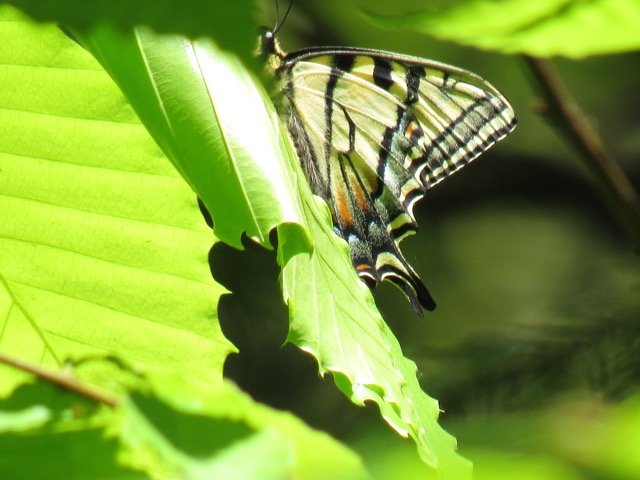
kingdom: Animalia
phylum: Arthropoda
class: Insecta
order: Lepidoptera
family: Papilionidae
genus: Pterourus
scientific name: Pterourus canadensis
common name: Canadian Tiger Swallowtail
